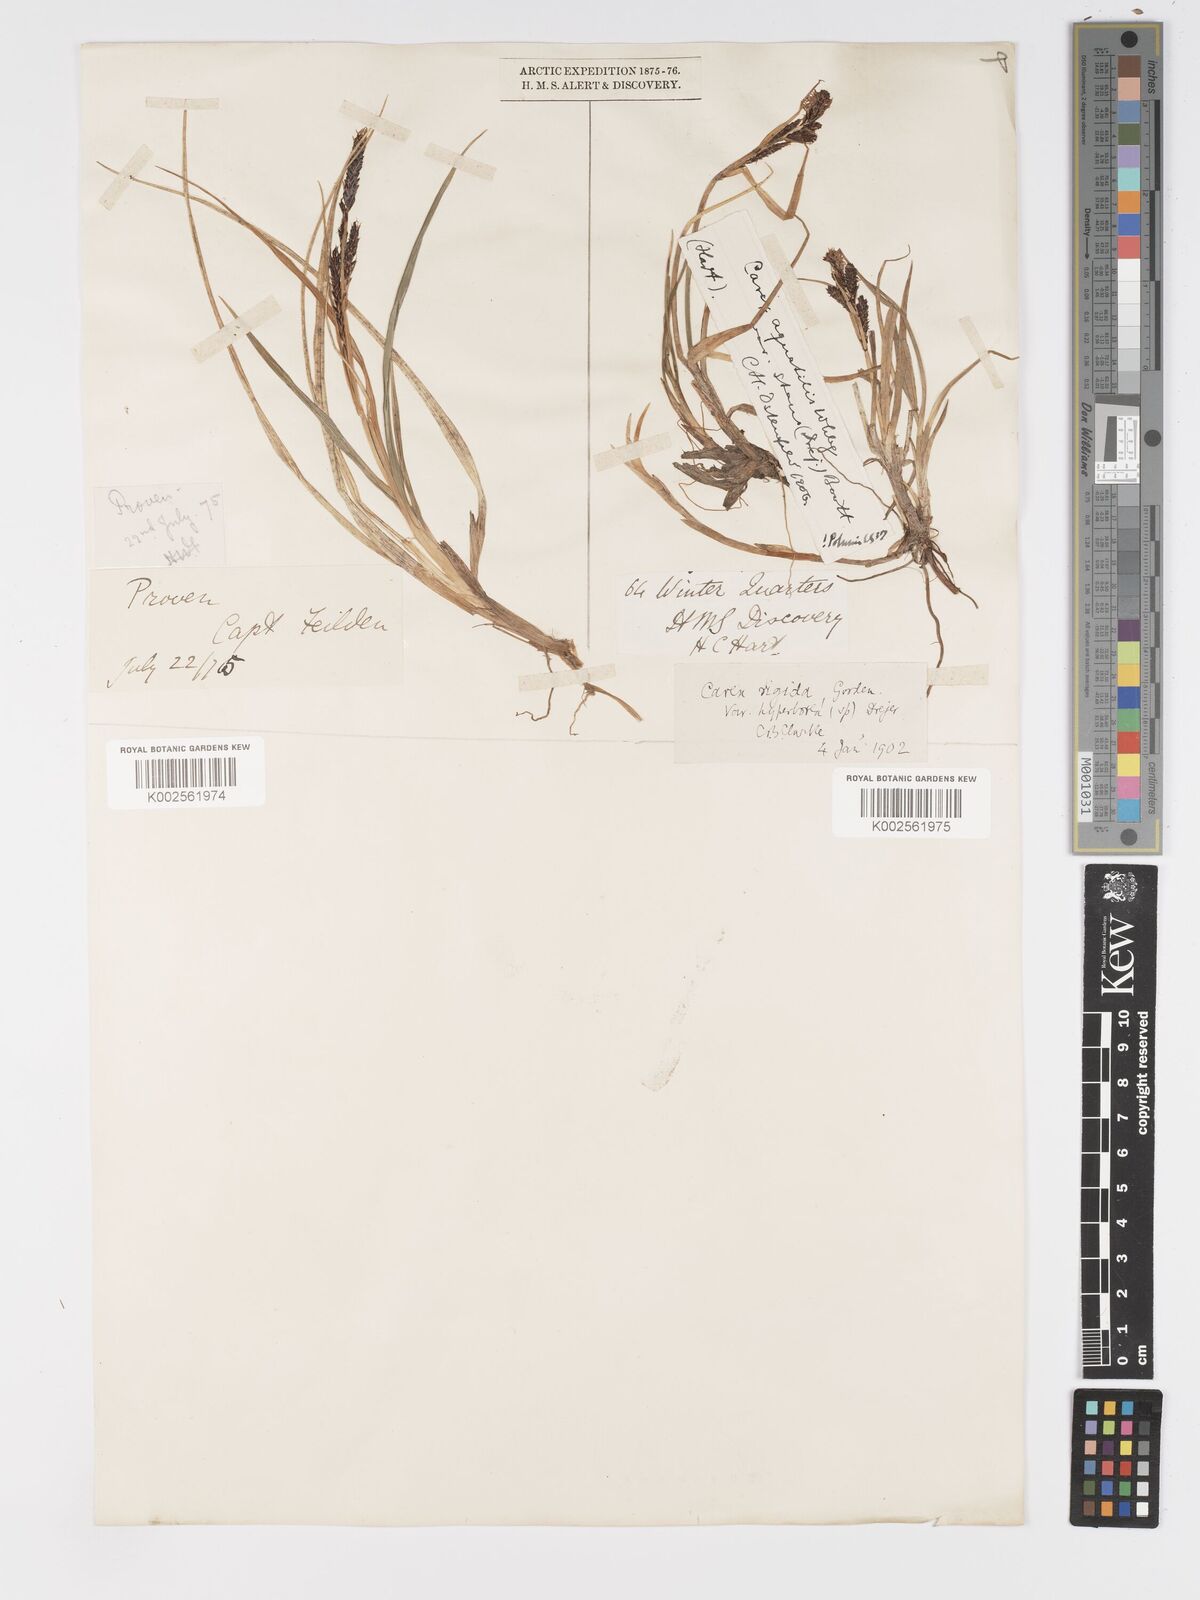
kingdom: Plantae
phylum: Tracheophyta
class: Liliopsida
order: Poales
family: Cyperaceae
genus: Carex
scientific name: Carex bigelowii
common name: Stiff sedge
